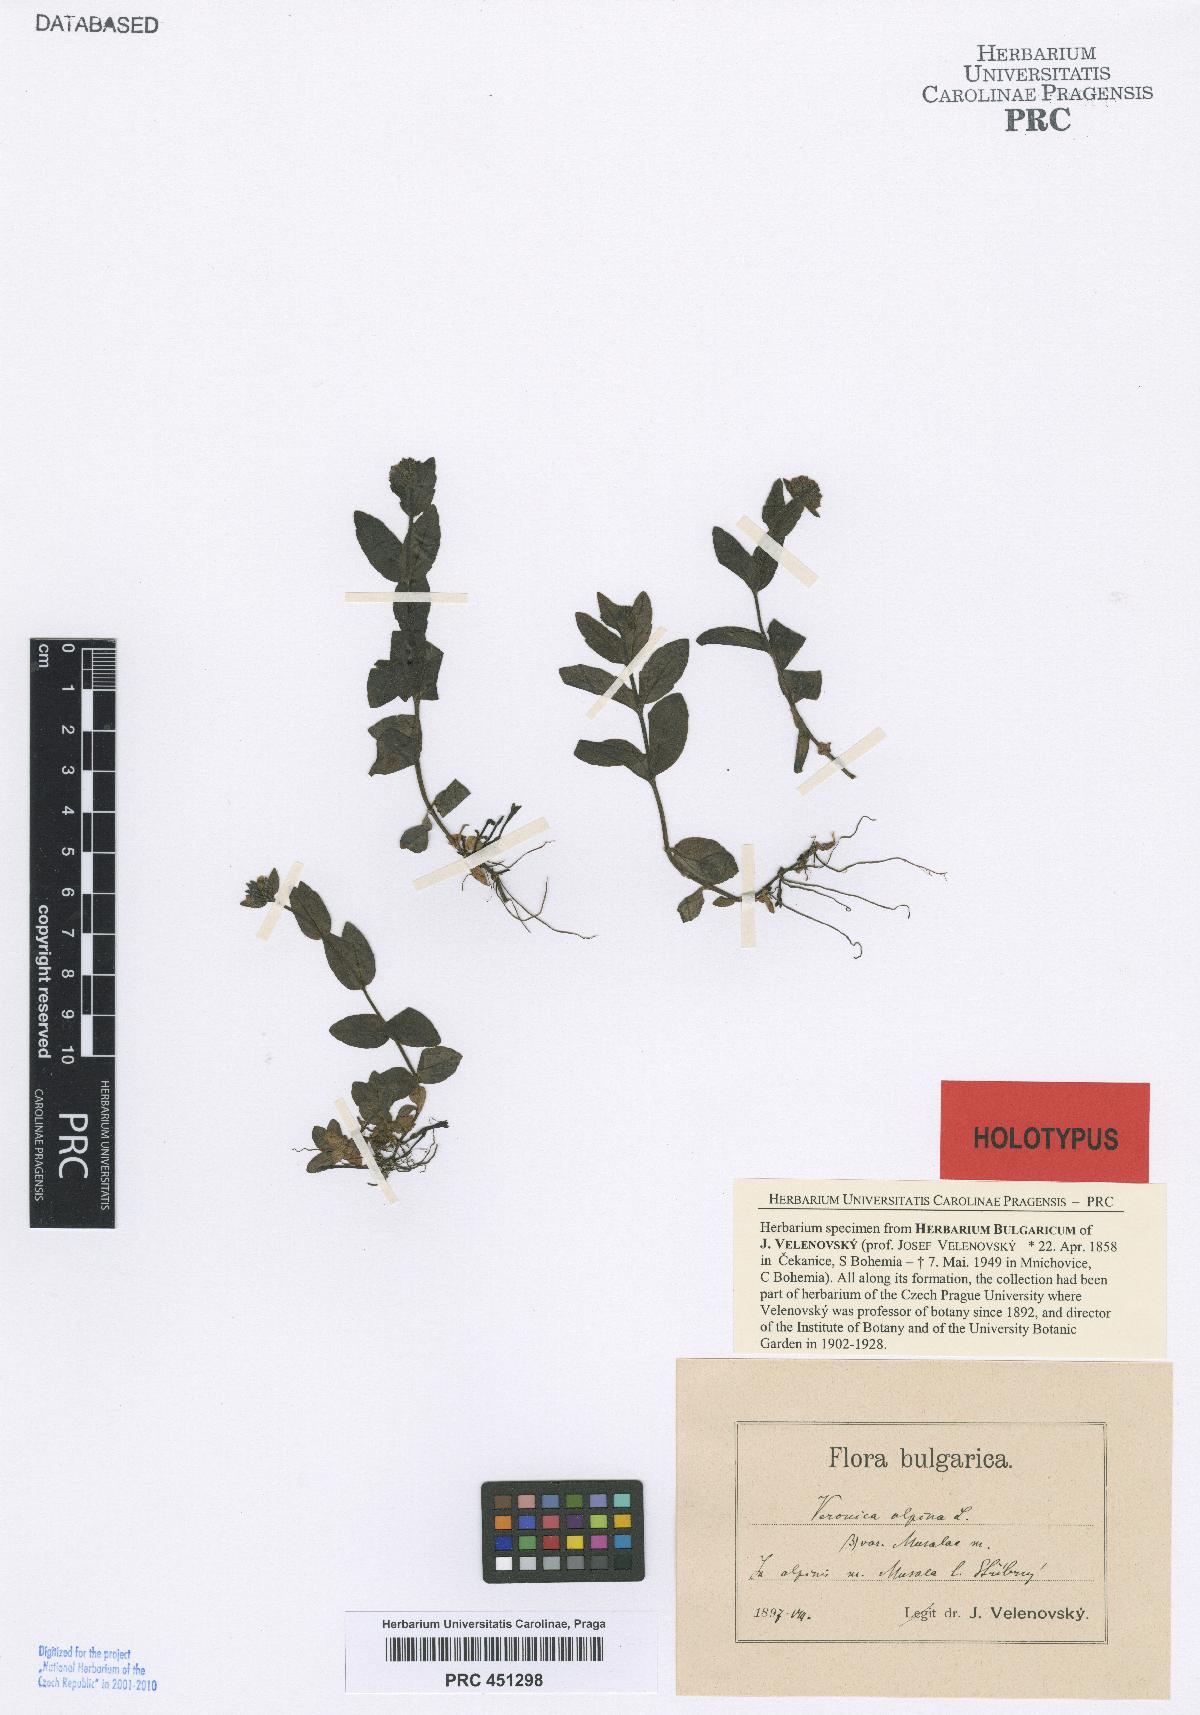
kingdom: Plantae
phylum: Tracheophyta
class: Magnoliopsida
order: Lamiales
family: Plantaginaceae
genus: Veronica
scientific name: Veronica alpina
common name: Alpine speedwell
